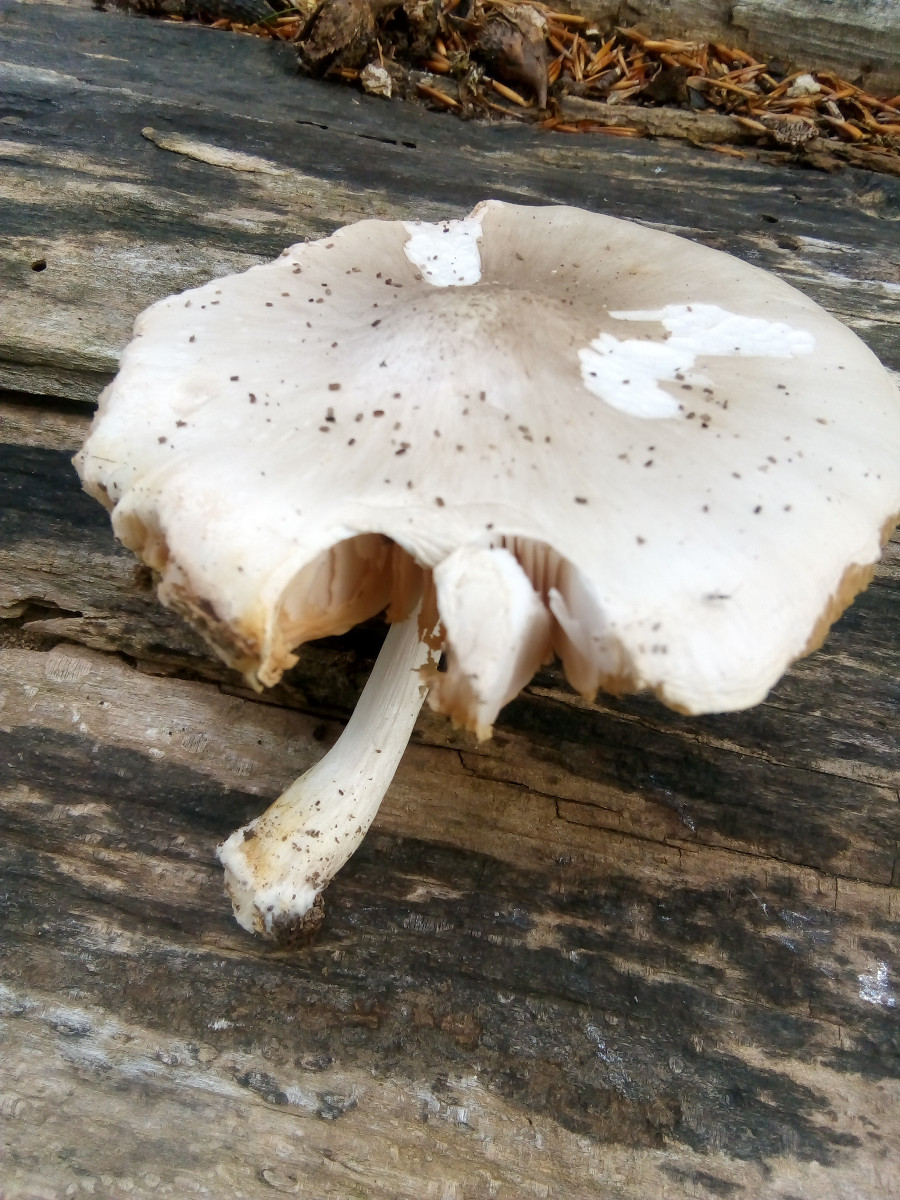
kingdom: Fungi
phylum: Basidiomycota
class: Agaricomycetes
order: Agaricales
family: Pluteaceae
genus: Pluteus
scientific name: Pluteus
